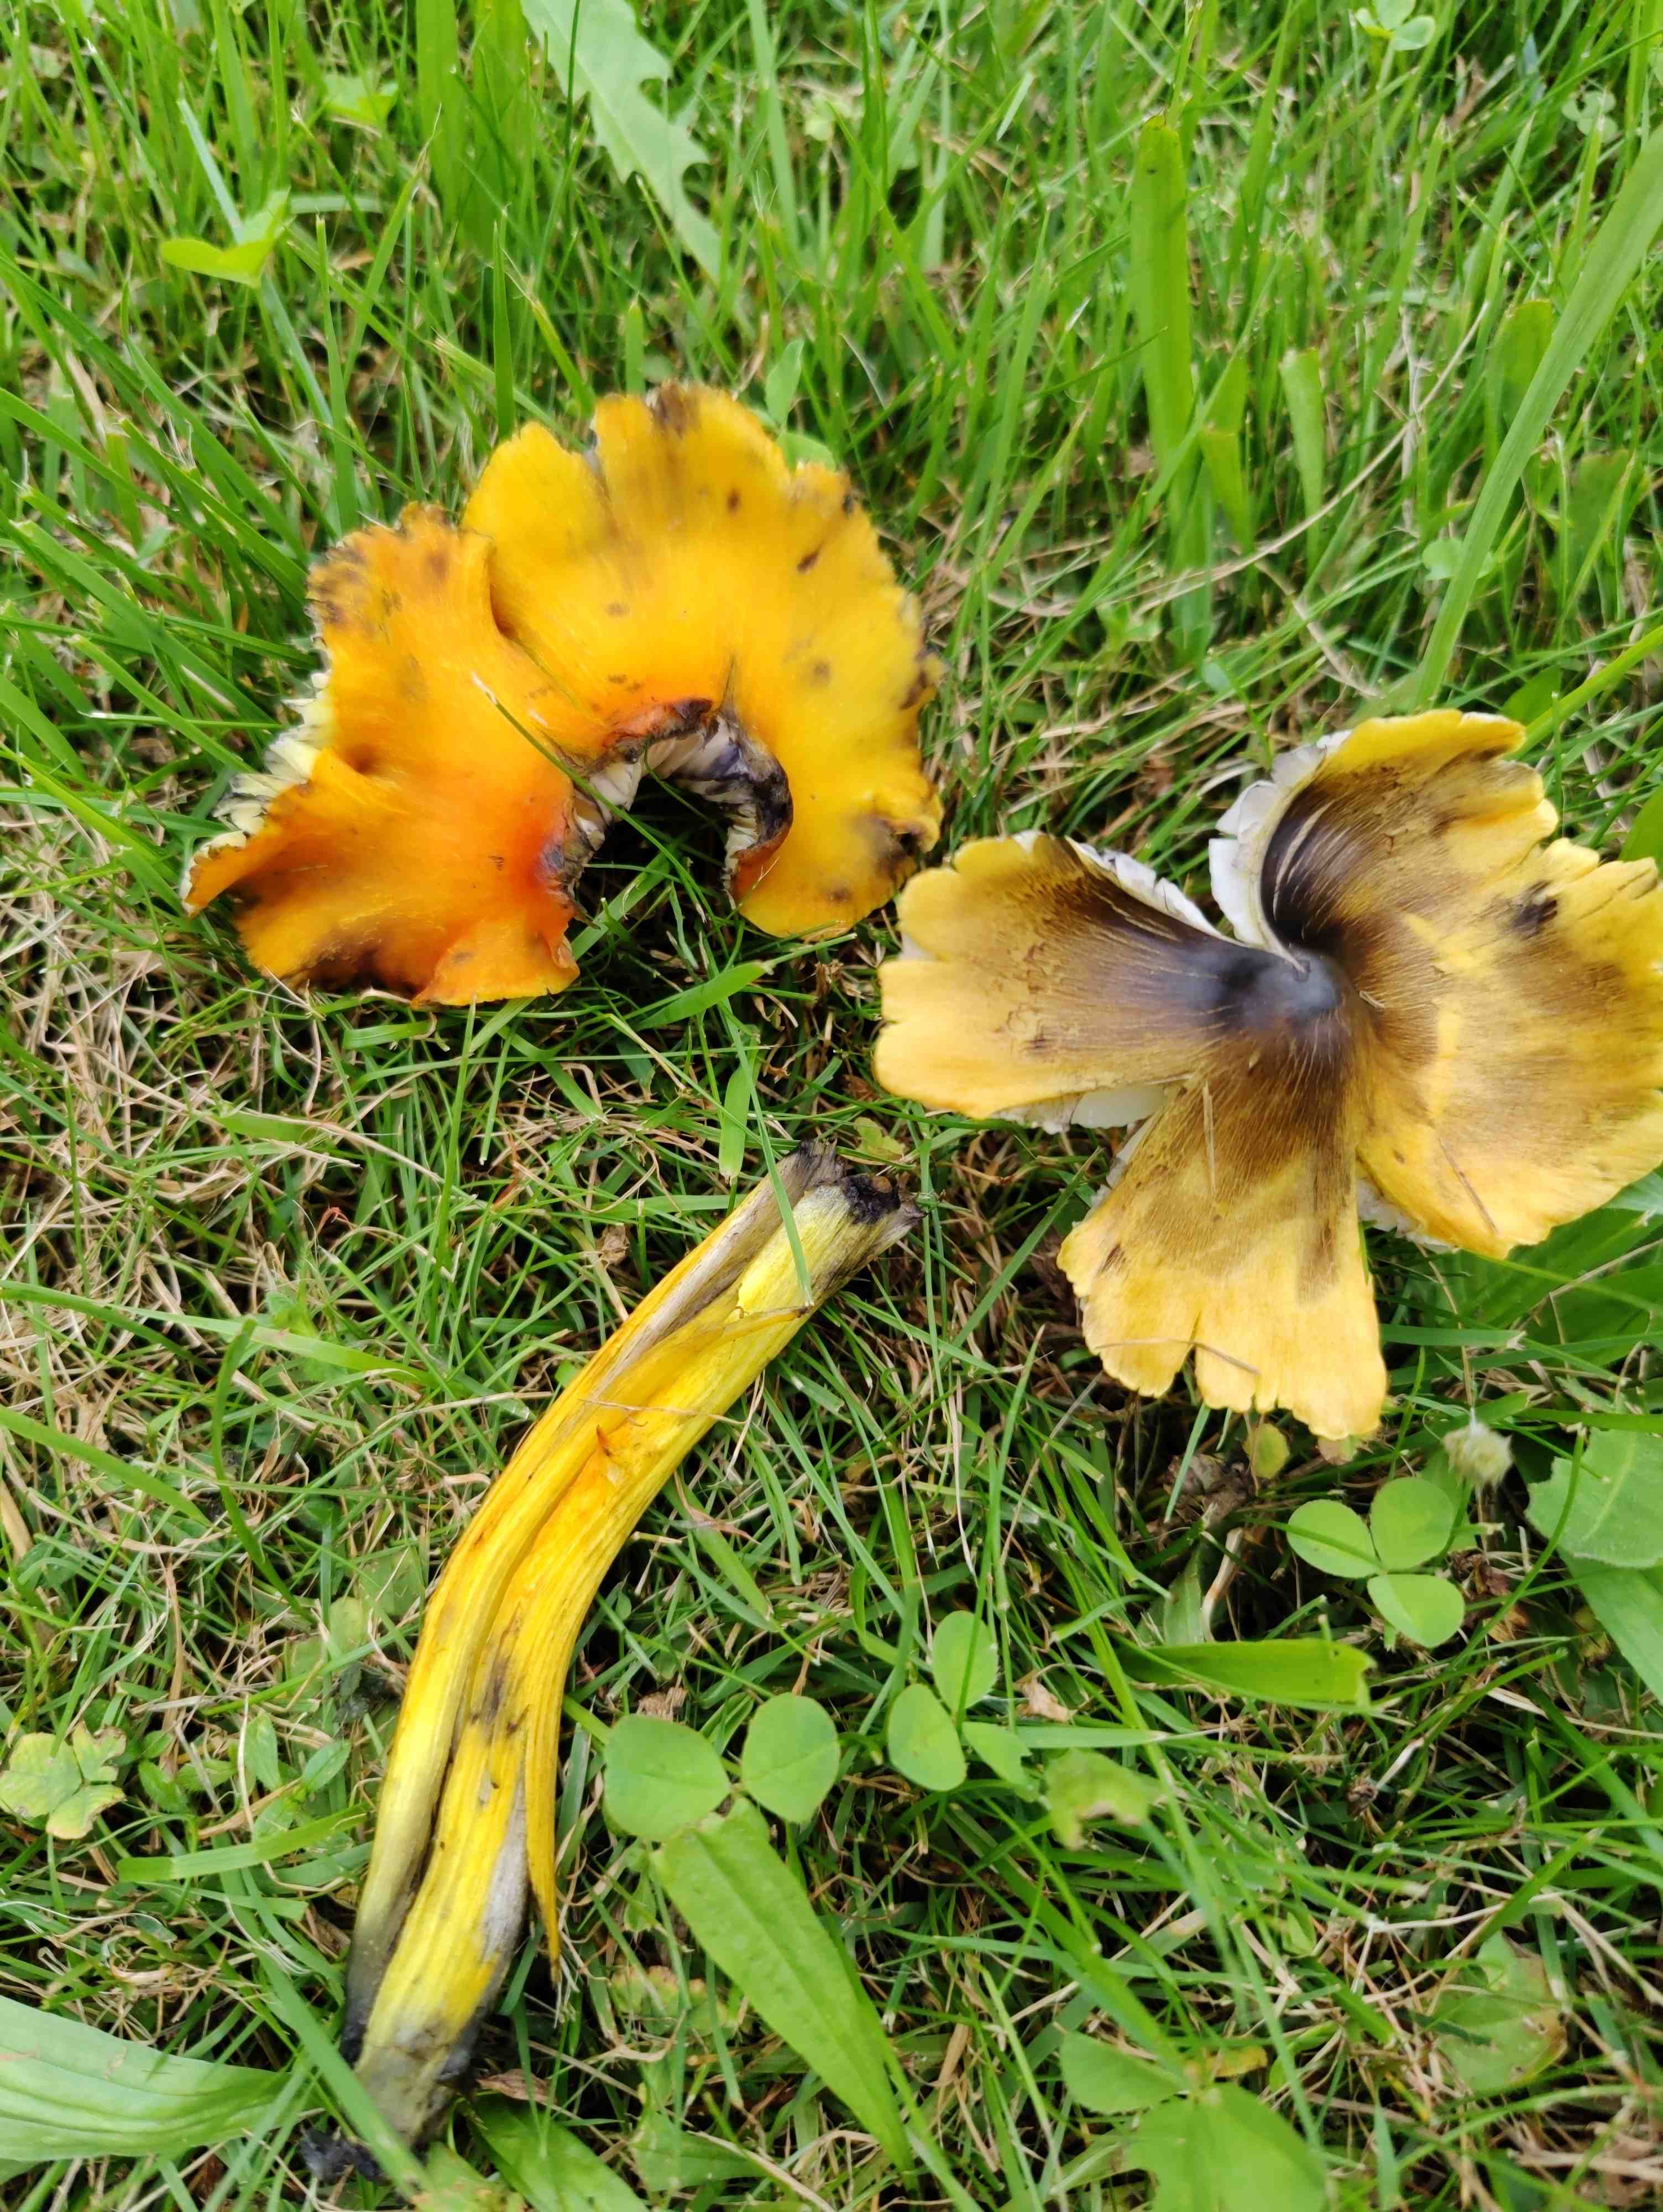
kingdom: Fungi
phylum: Basidiomycota
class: Agaricomycetes
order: Agaricales
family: Hygrophoraceae
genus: Hygrocybe
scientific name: Hygrocybe conica
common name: kegle-vokshat
